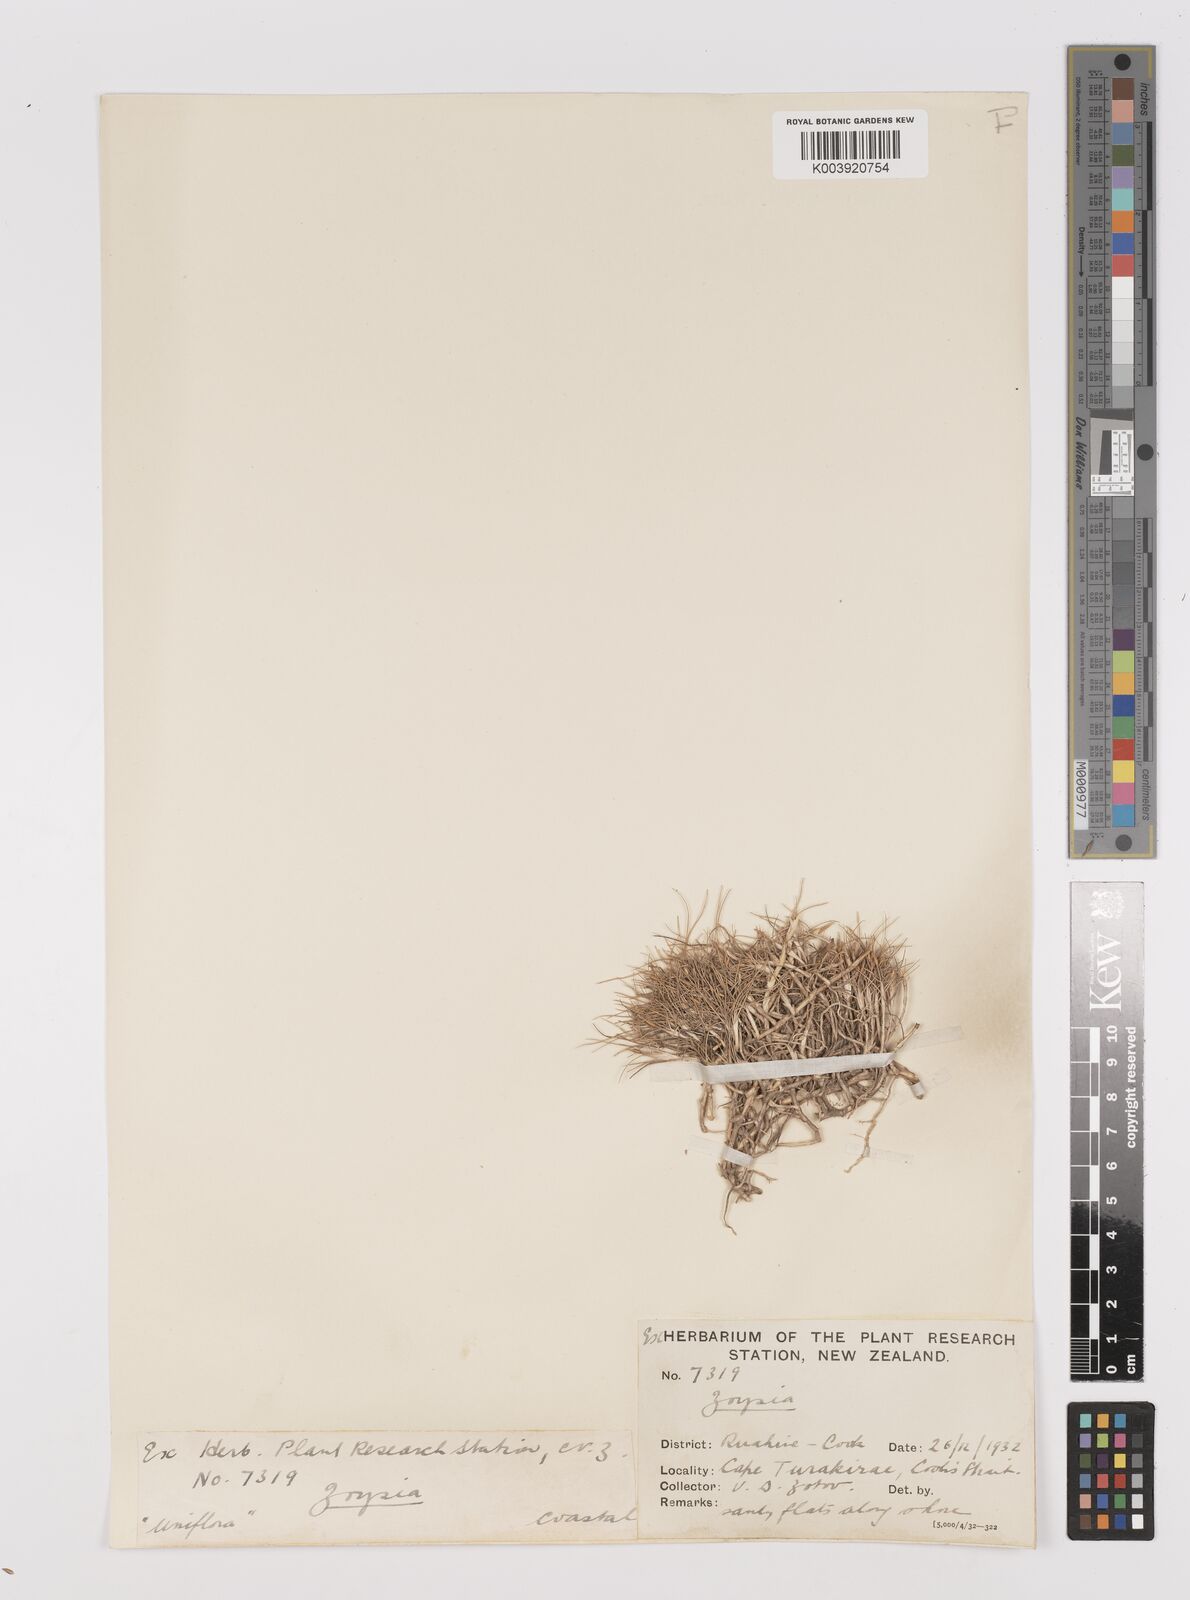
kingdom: Plantae
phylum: Tracheophyta
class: Liliopsida
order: Poales
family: Poaceae
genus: Zoysia
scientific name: Zoysia minima
